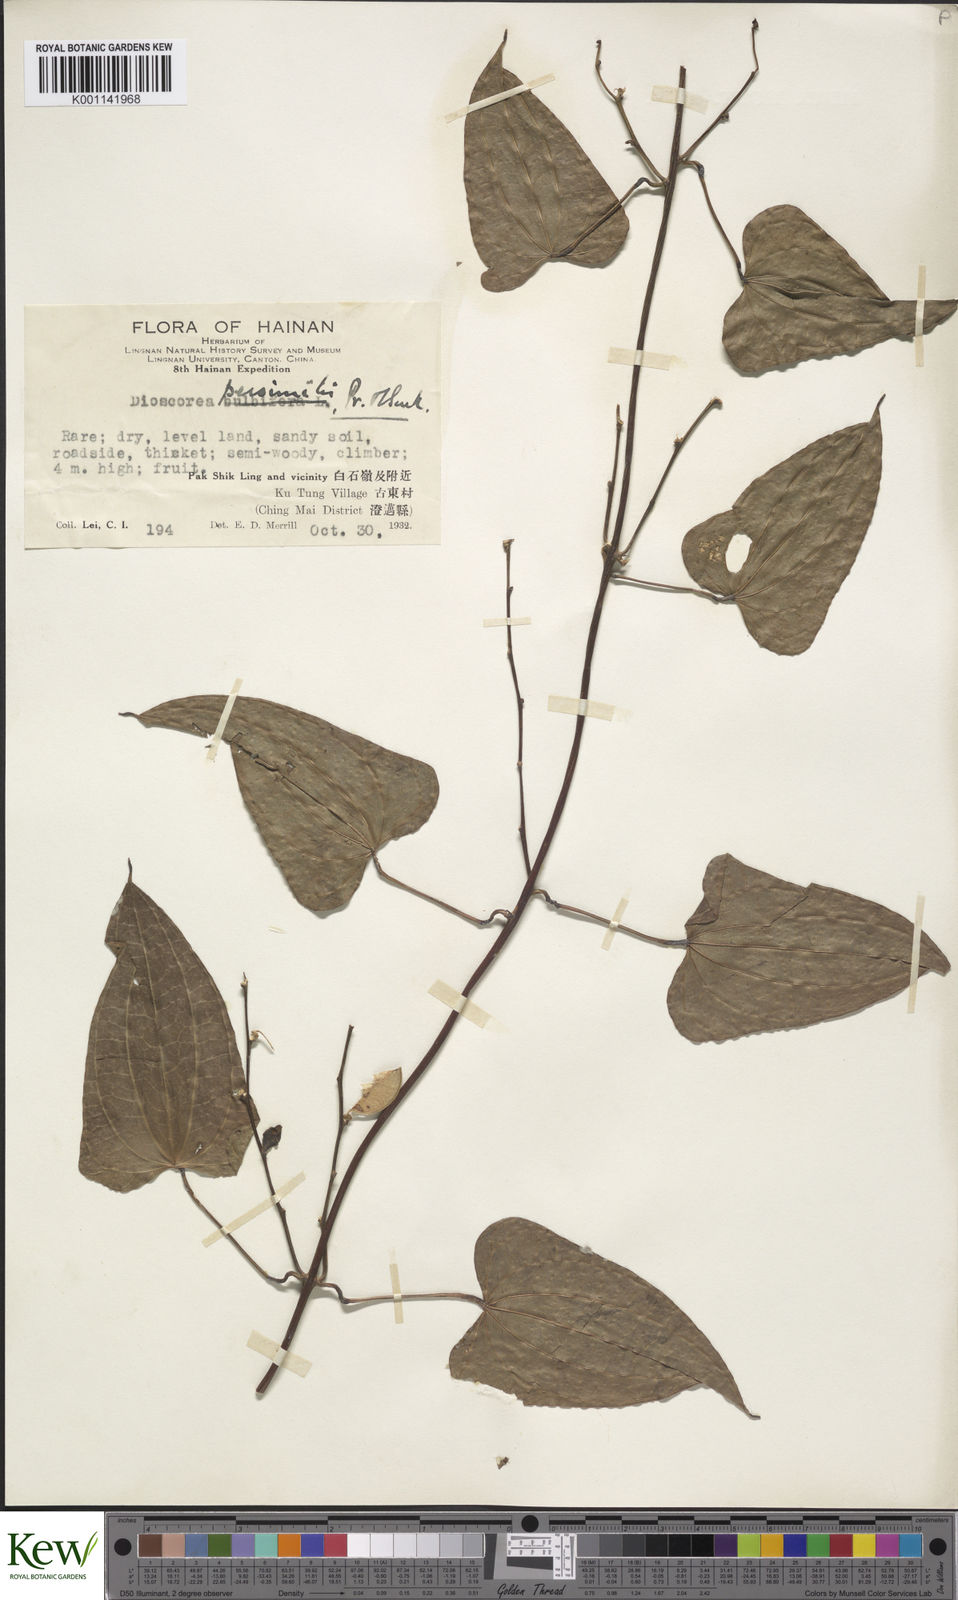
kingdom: Plantae
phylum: Tracheophyta
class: Liliopsida
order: Dioscoreales
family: Dioscoreaceae
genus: Dioscorea
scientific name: Dioscorea hamiltonii
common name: Mountain yam
